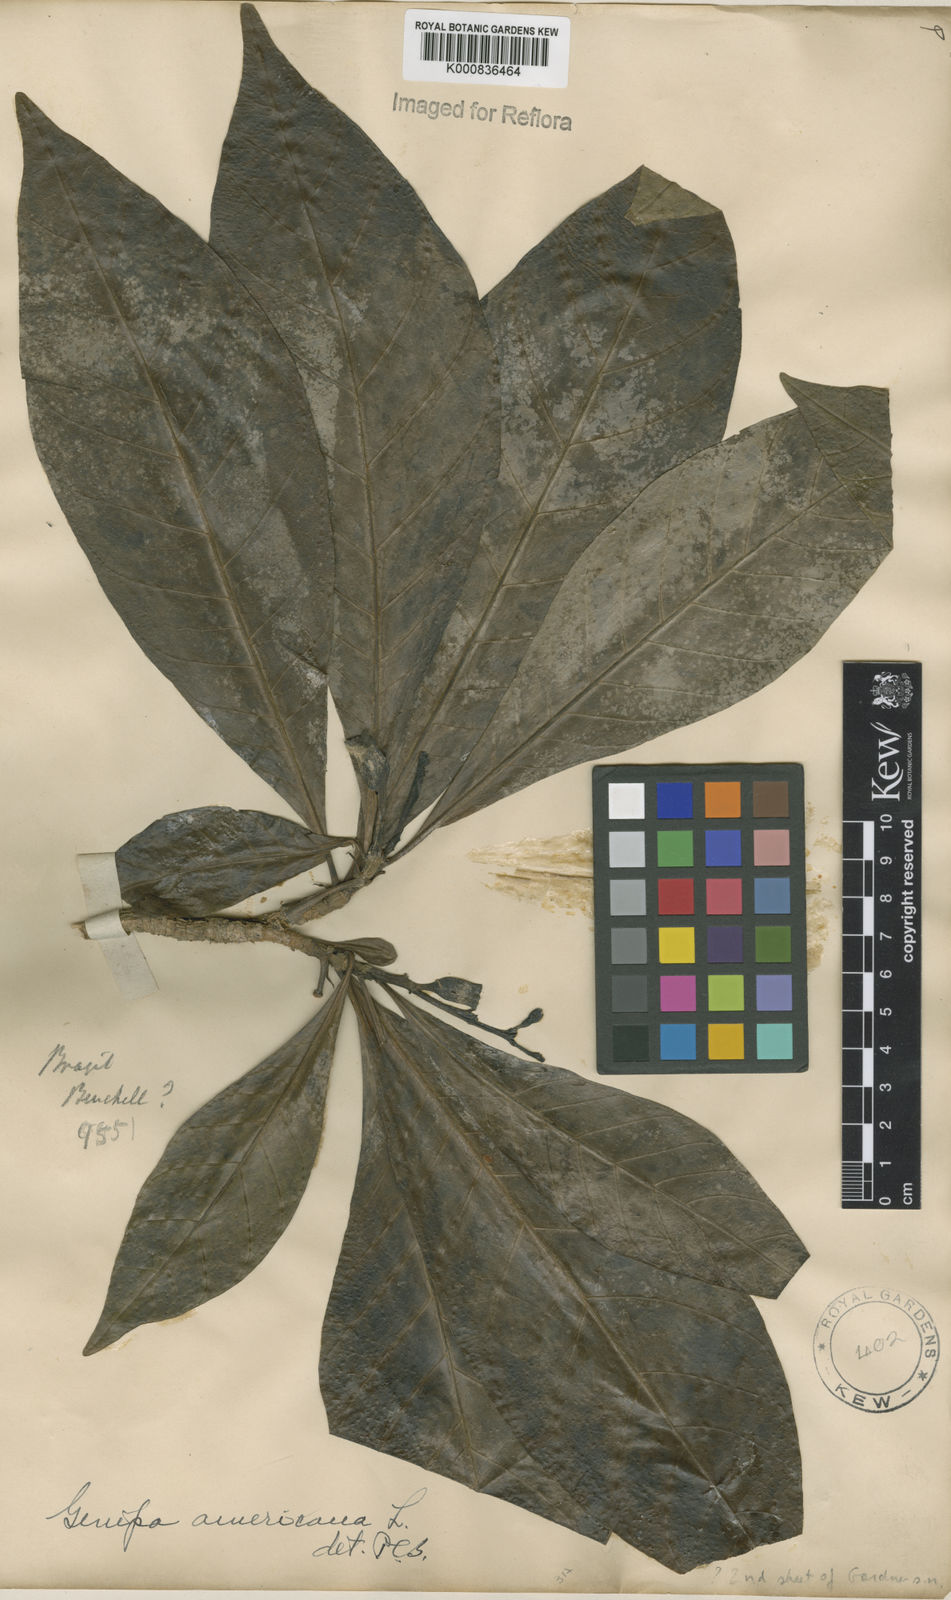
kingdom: Plantae
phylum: Tracheophyta
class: Magnoliopsida
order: Gentianales
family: Rubiaceae
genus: Genipa
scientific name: Genipa americana
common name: Genipap
